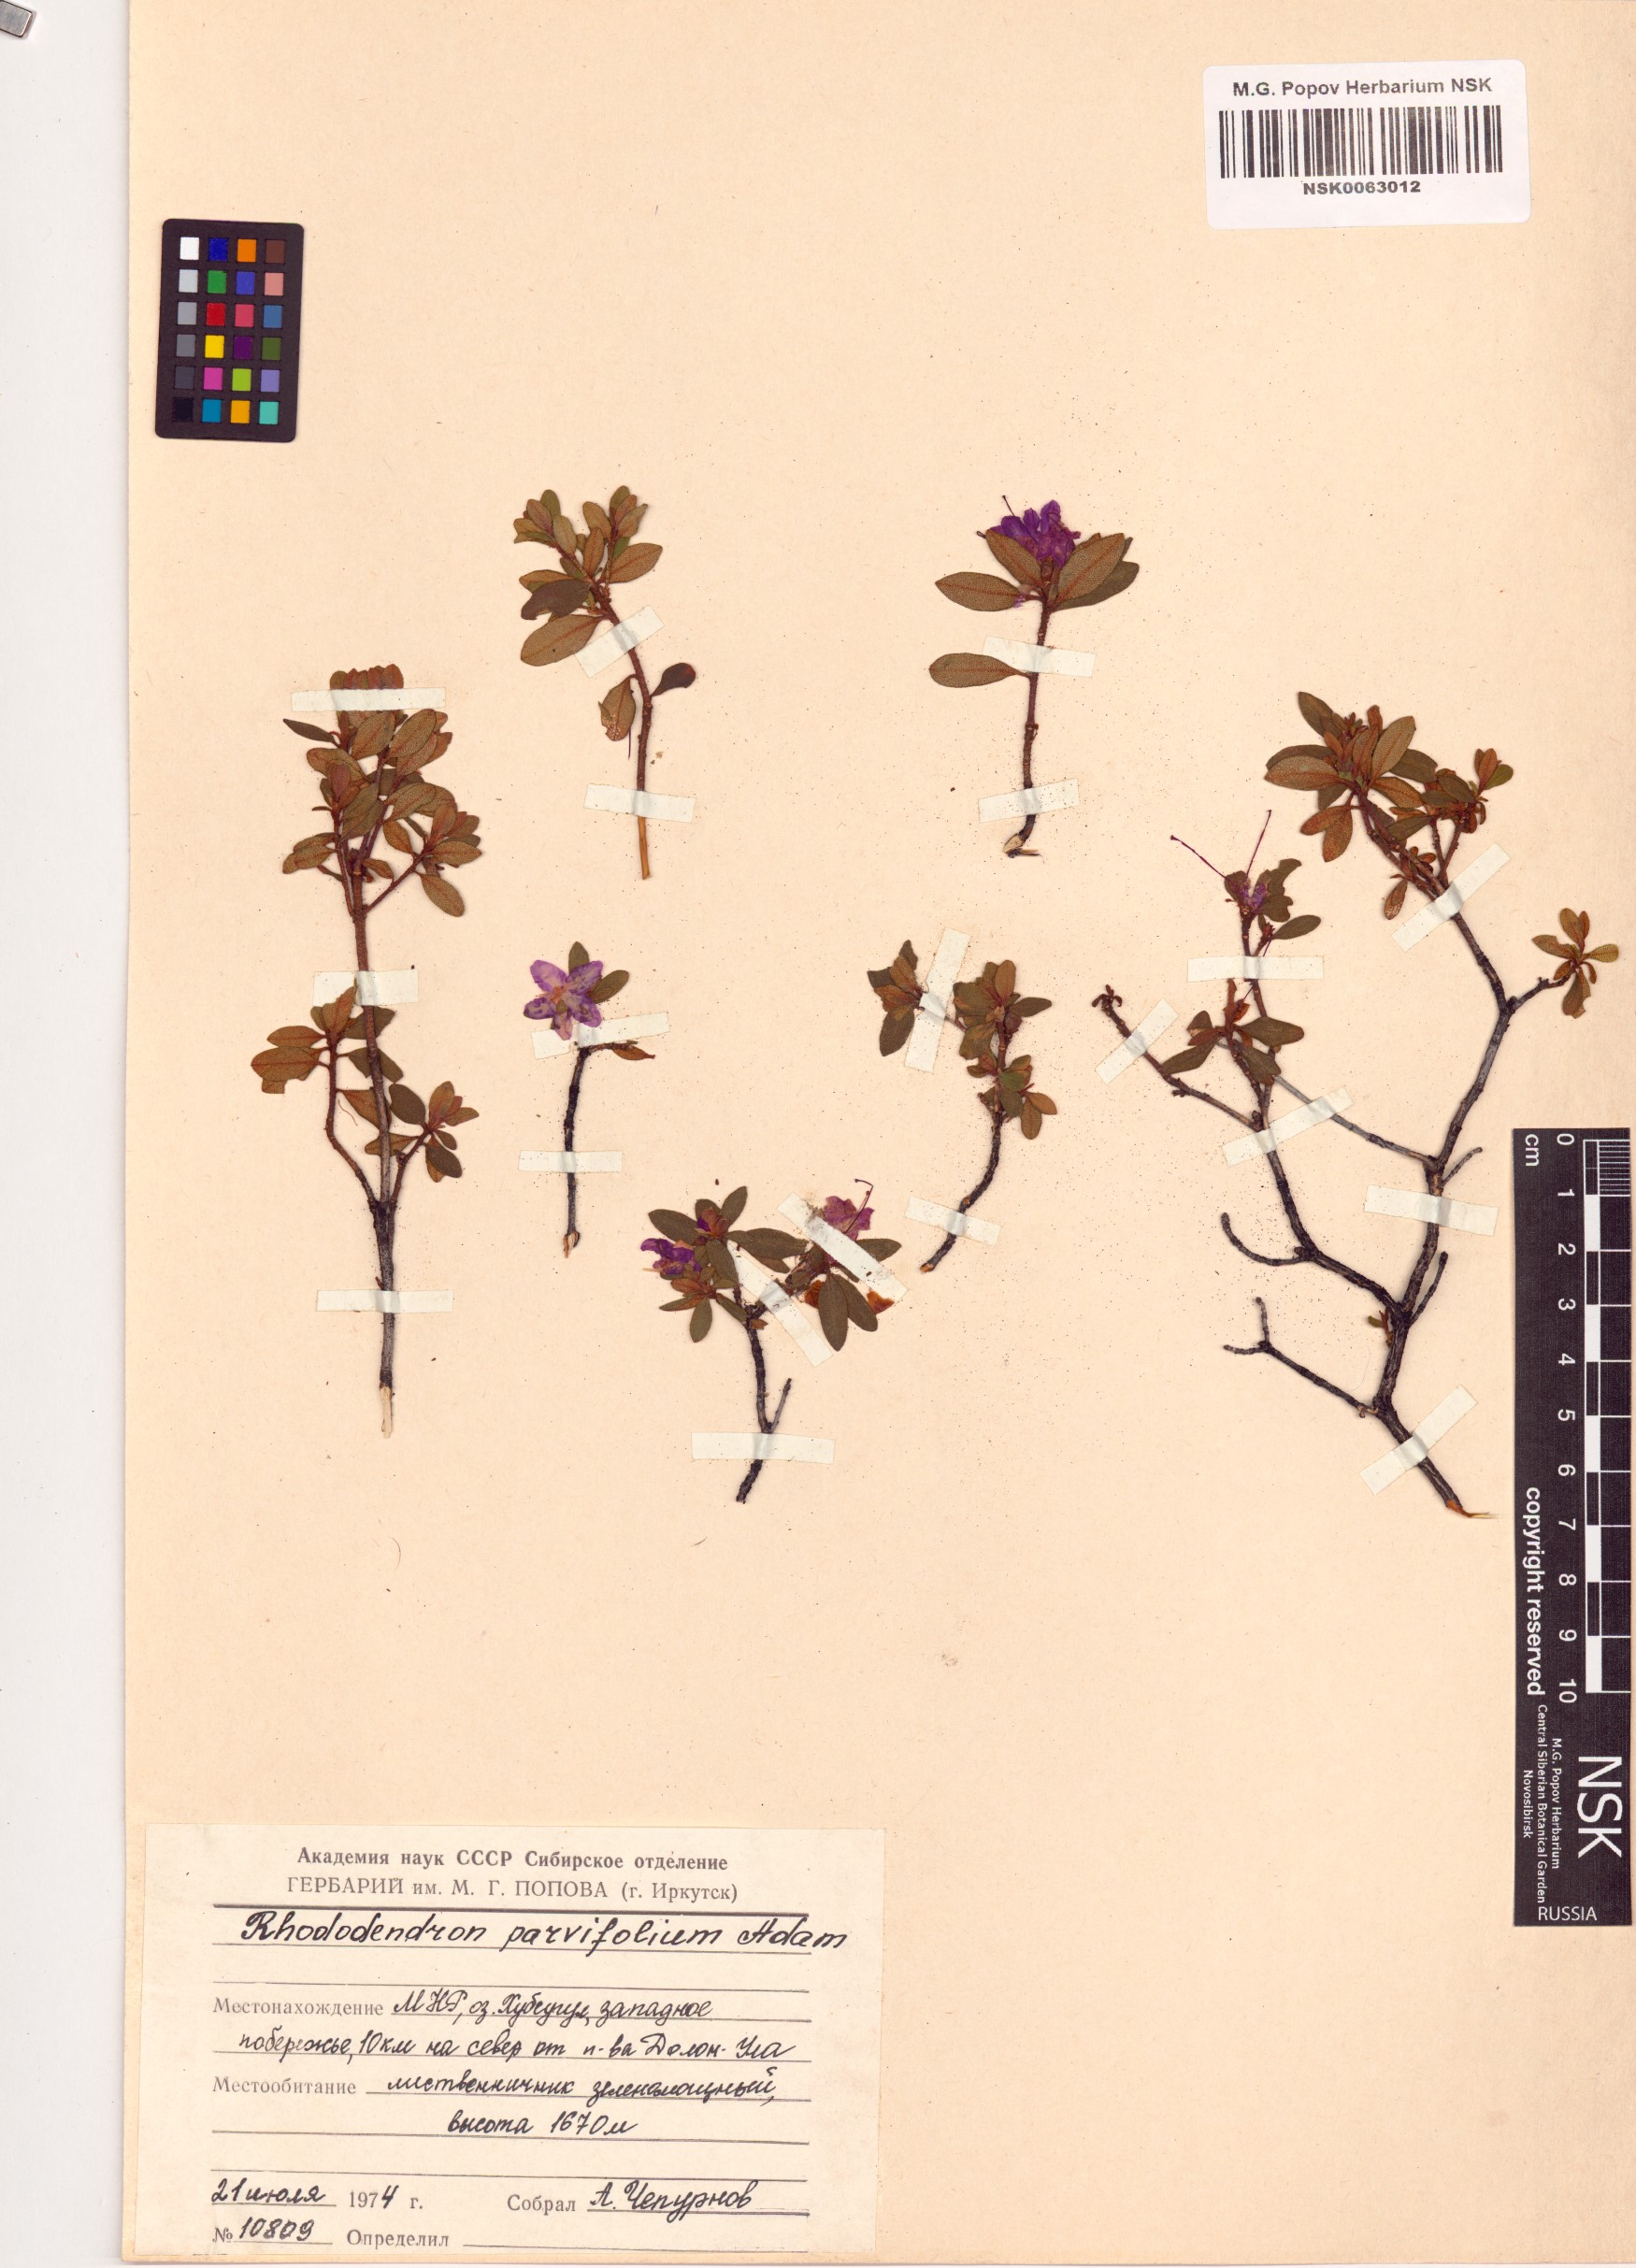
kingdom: Plantae
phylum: Tracheophyta
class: Magnoliopsida
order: Ericales
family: Ericaceae
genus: Rhododendron
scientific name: Rhododendron parvifolium
